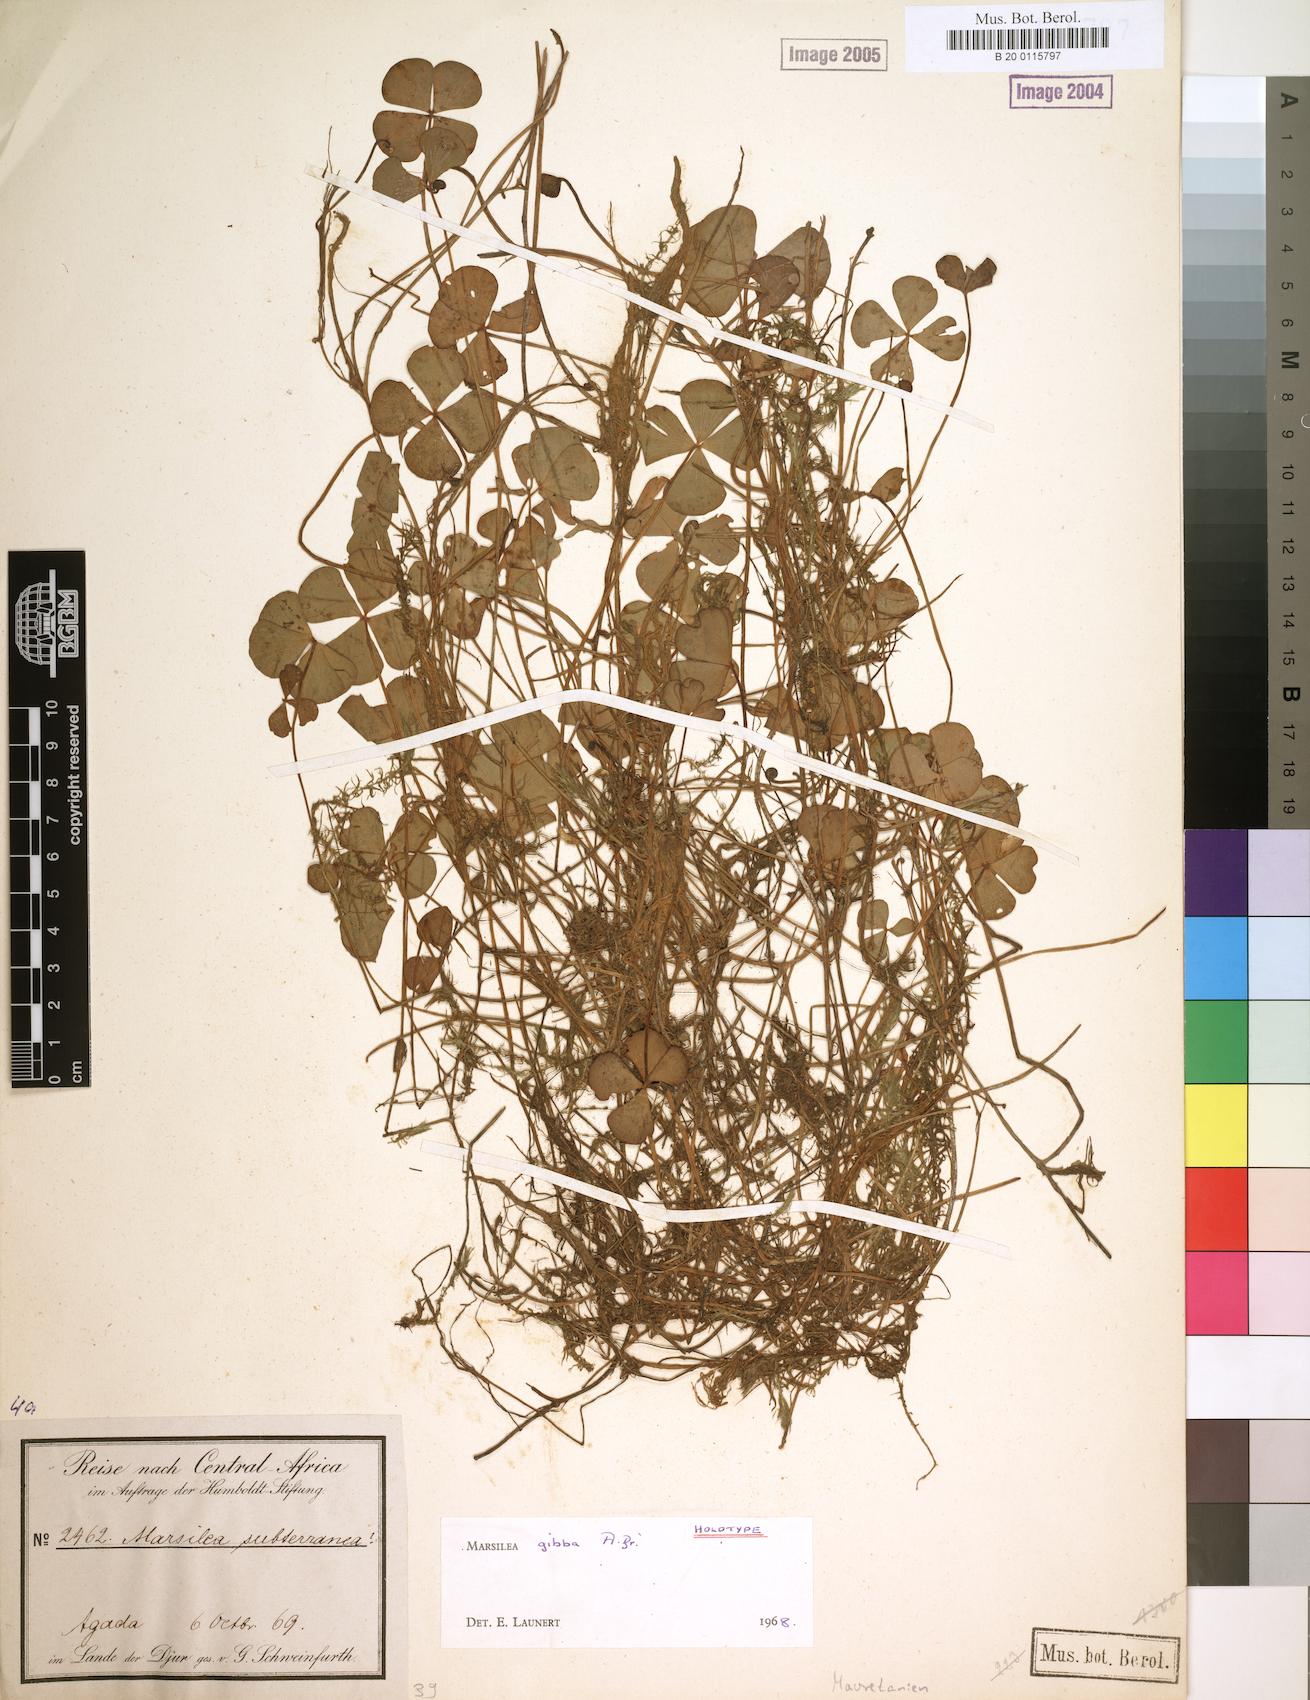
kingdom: Plantae
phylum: Tracheophyta
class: Polypodiopsida
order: Salviniales
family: Marsileaceae
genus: Marsilea
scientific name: Marsilea gibba
